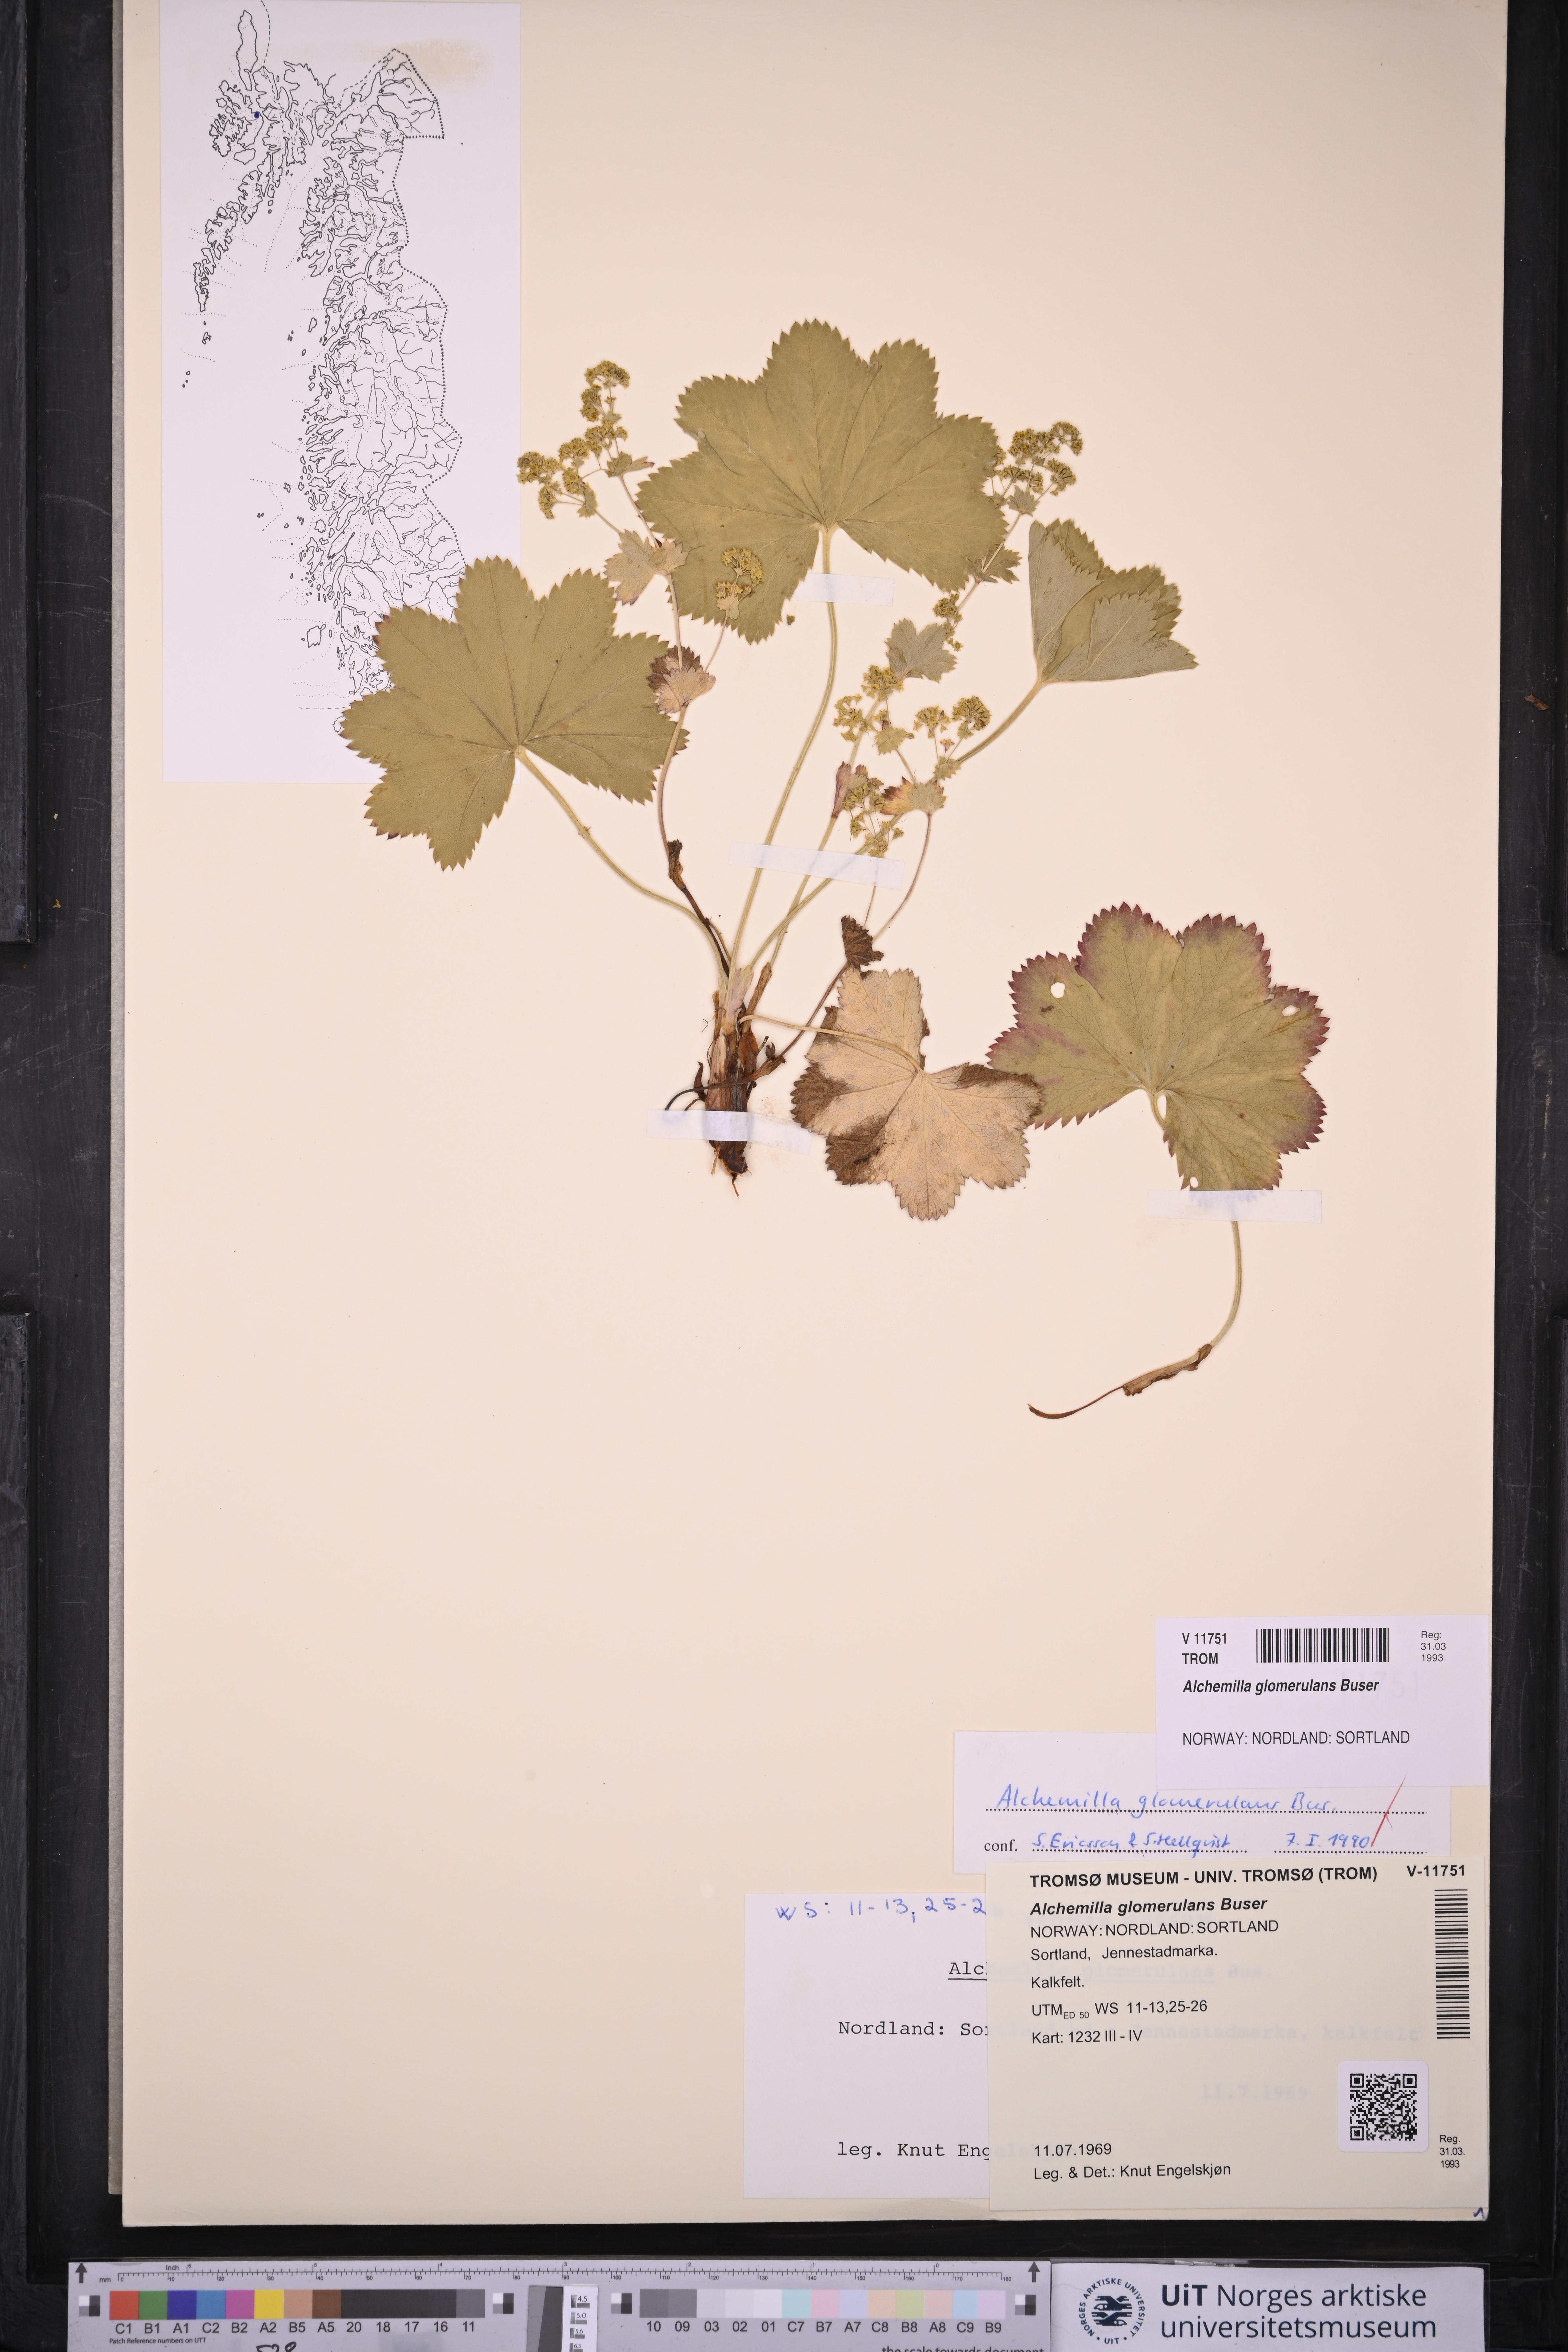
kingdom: Plantae
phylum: Tracheophyta
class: Magnoliopsida
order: Rosales
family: Rosaceae
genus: Alchemilla
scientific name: Alchemilla glomerulans
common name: Clustered lady's mantle
